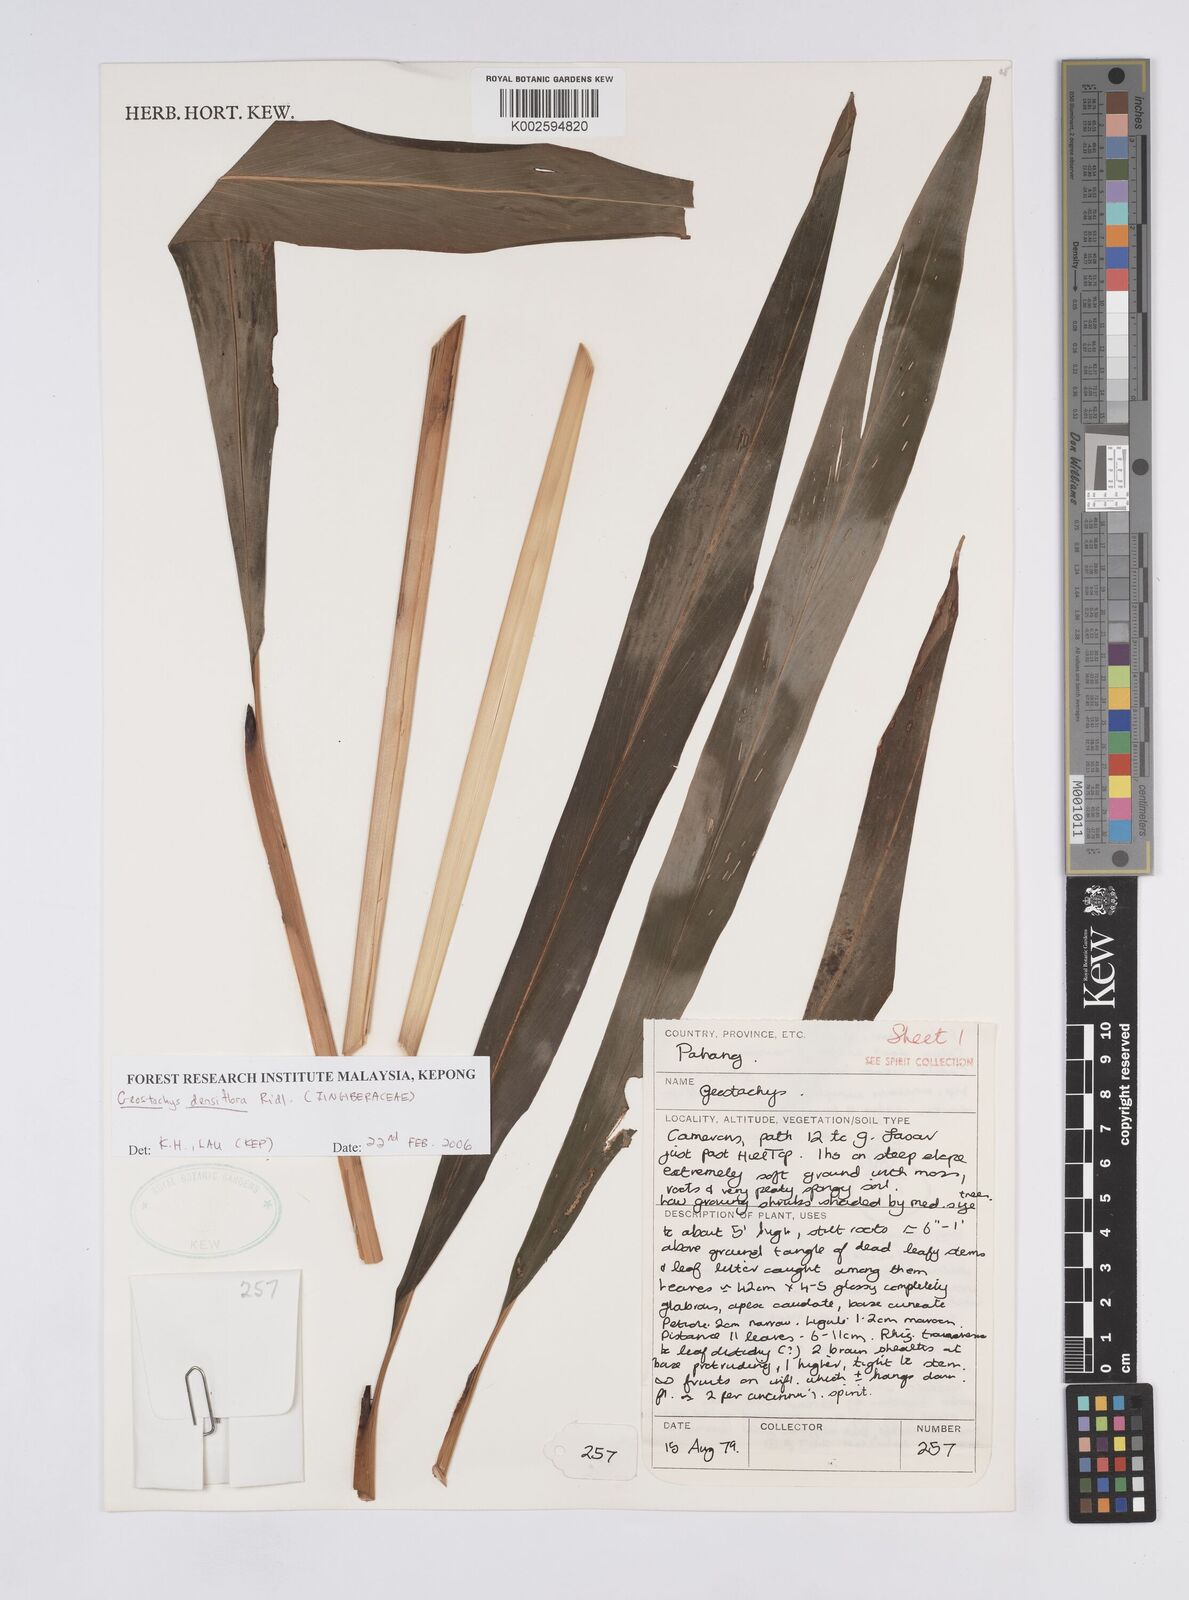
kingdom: Plantae
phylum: Tracheophyta
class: Liliopsida
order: Zingiberales
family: Zingiberaceae
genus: Geostachys
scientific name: Geostachys densiflora
